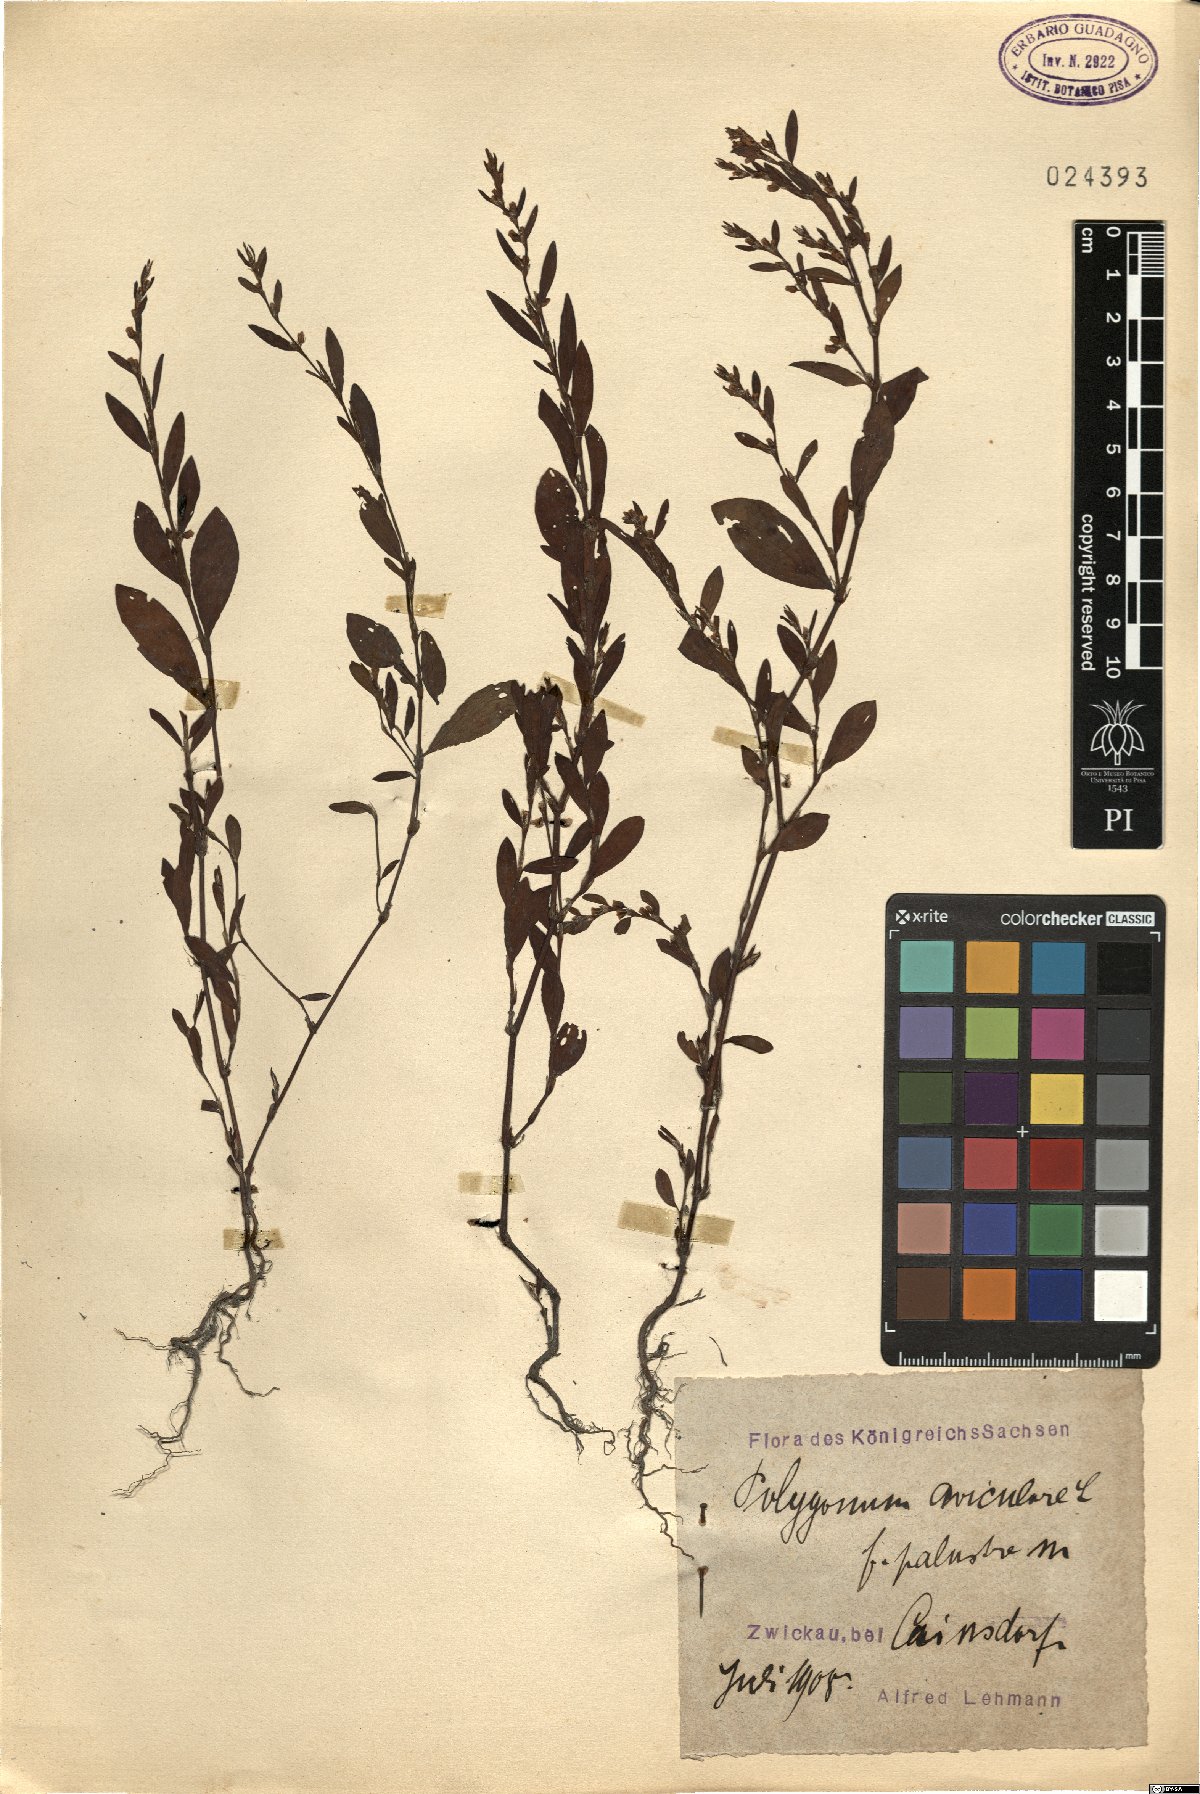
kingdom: Plantae
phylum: Tracheophyta
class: Magnoliopsida
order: Caryophyllales
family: Polygonaceae
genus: Polygonum
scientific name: Polygonum aviculare
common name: Prostrate knotweed
